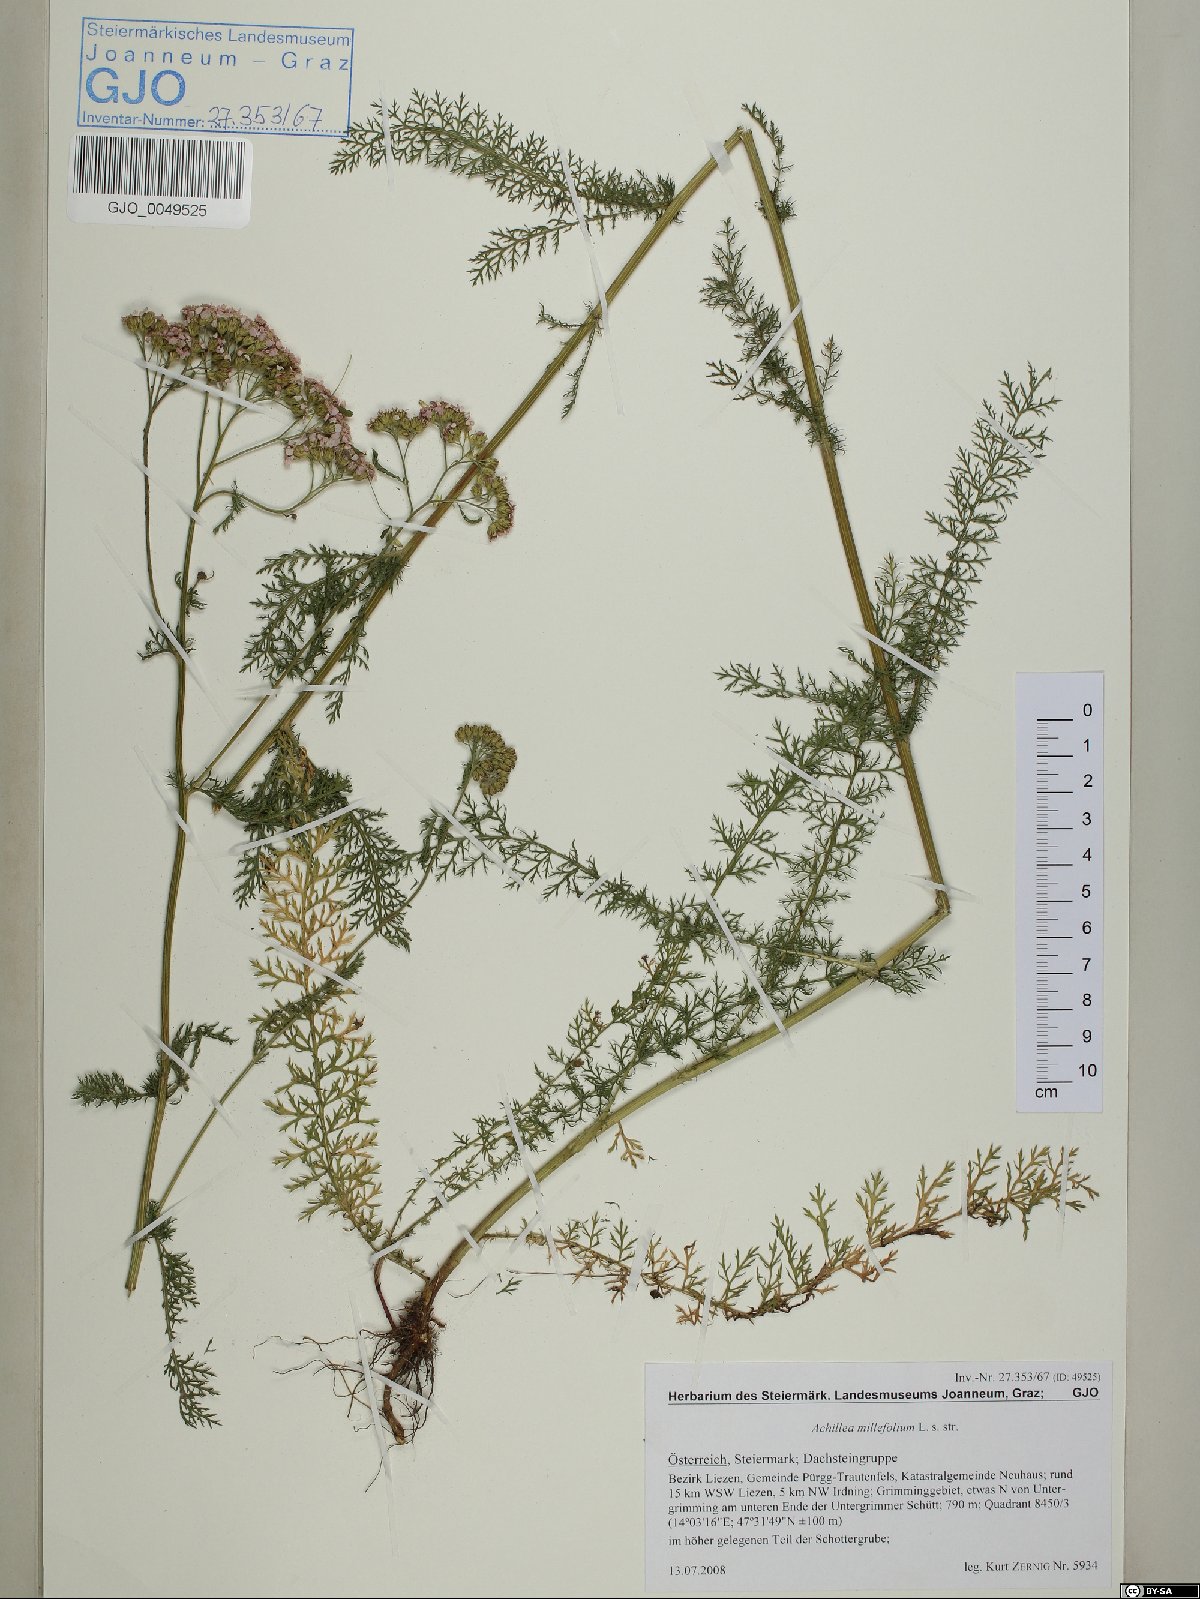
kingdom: Plantae
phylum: Tracheophyta
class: Magnoliopsida
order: Asterales
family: Asteraceae
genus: Achillea
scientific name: Achillea millefolium
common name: Yarrow
